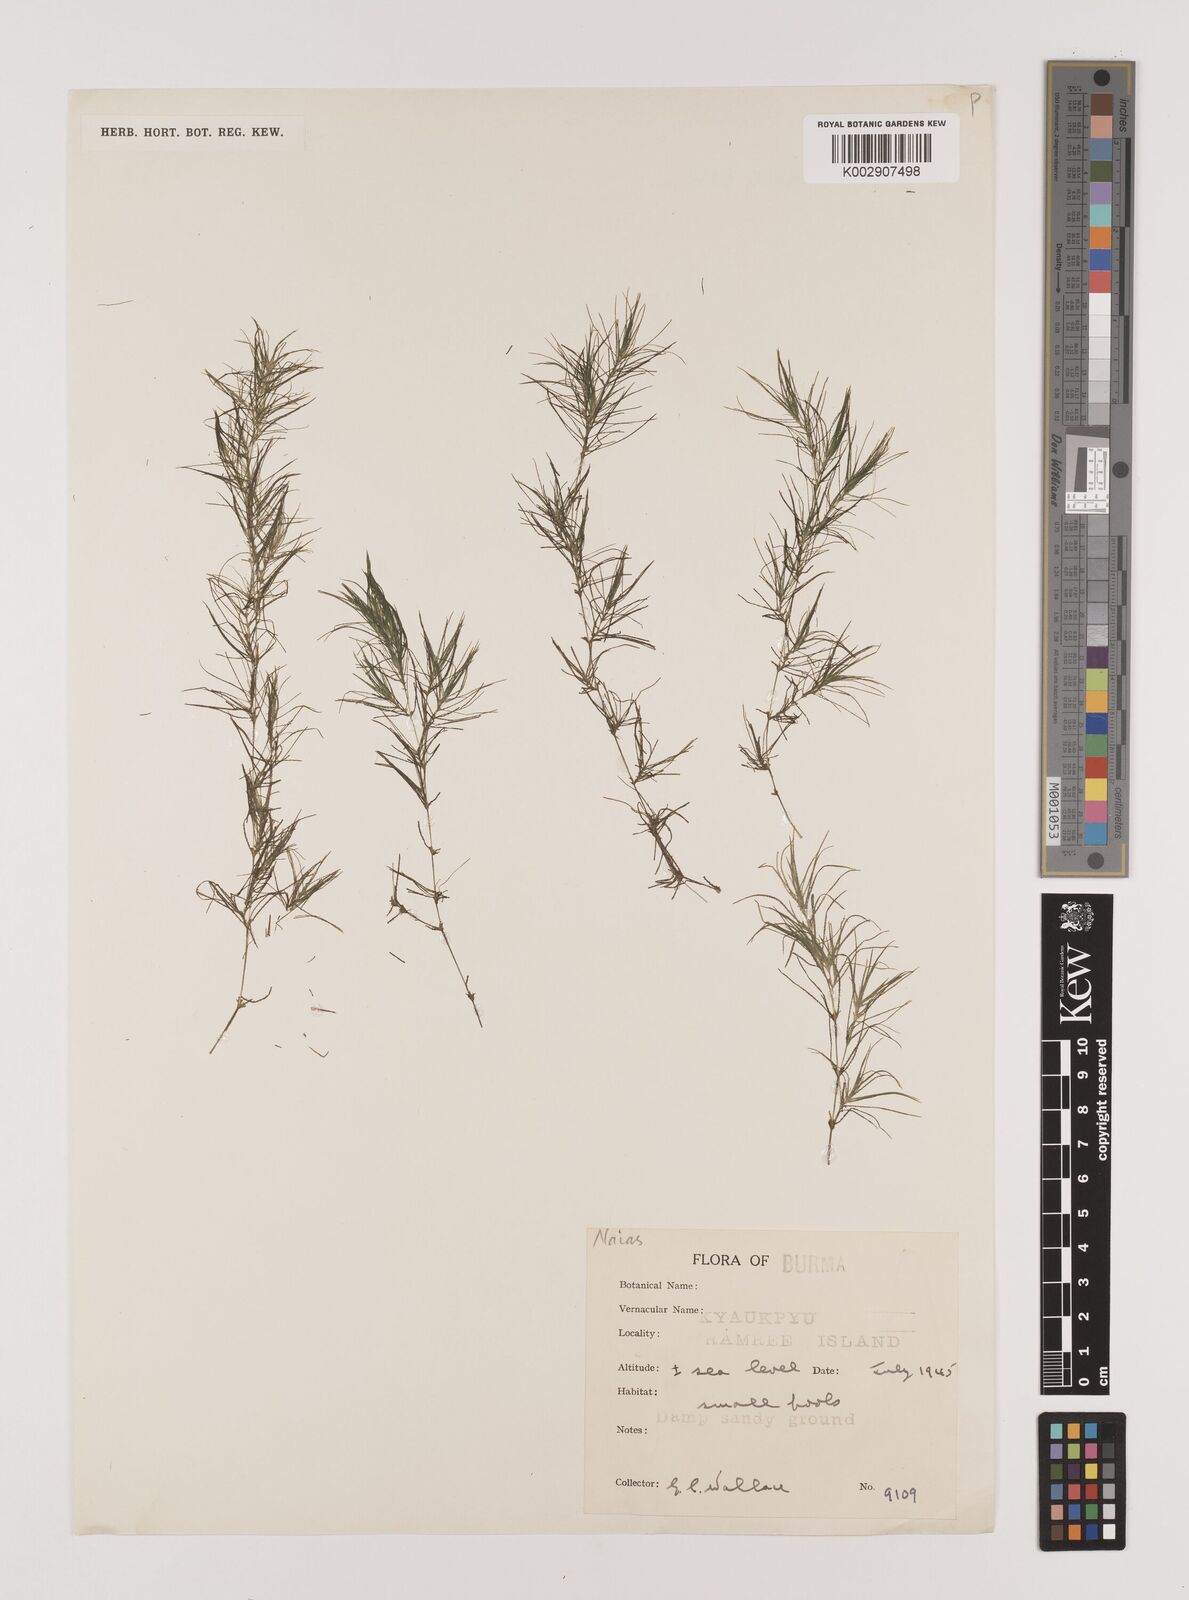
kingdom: Plantae
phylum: Tracheophyta
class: Liliopsida
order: Alismatales
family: Hydrocharitaceae
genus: Najas
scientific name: Najas
